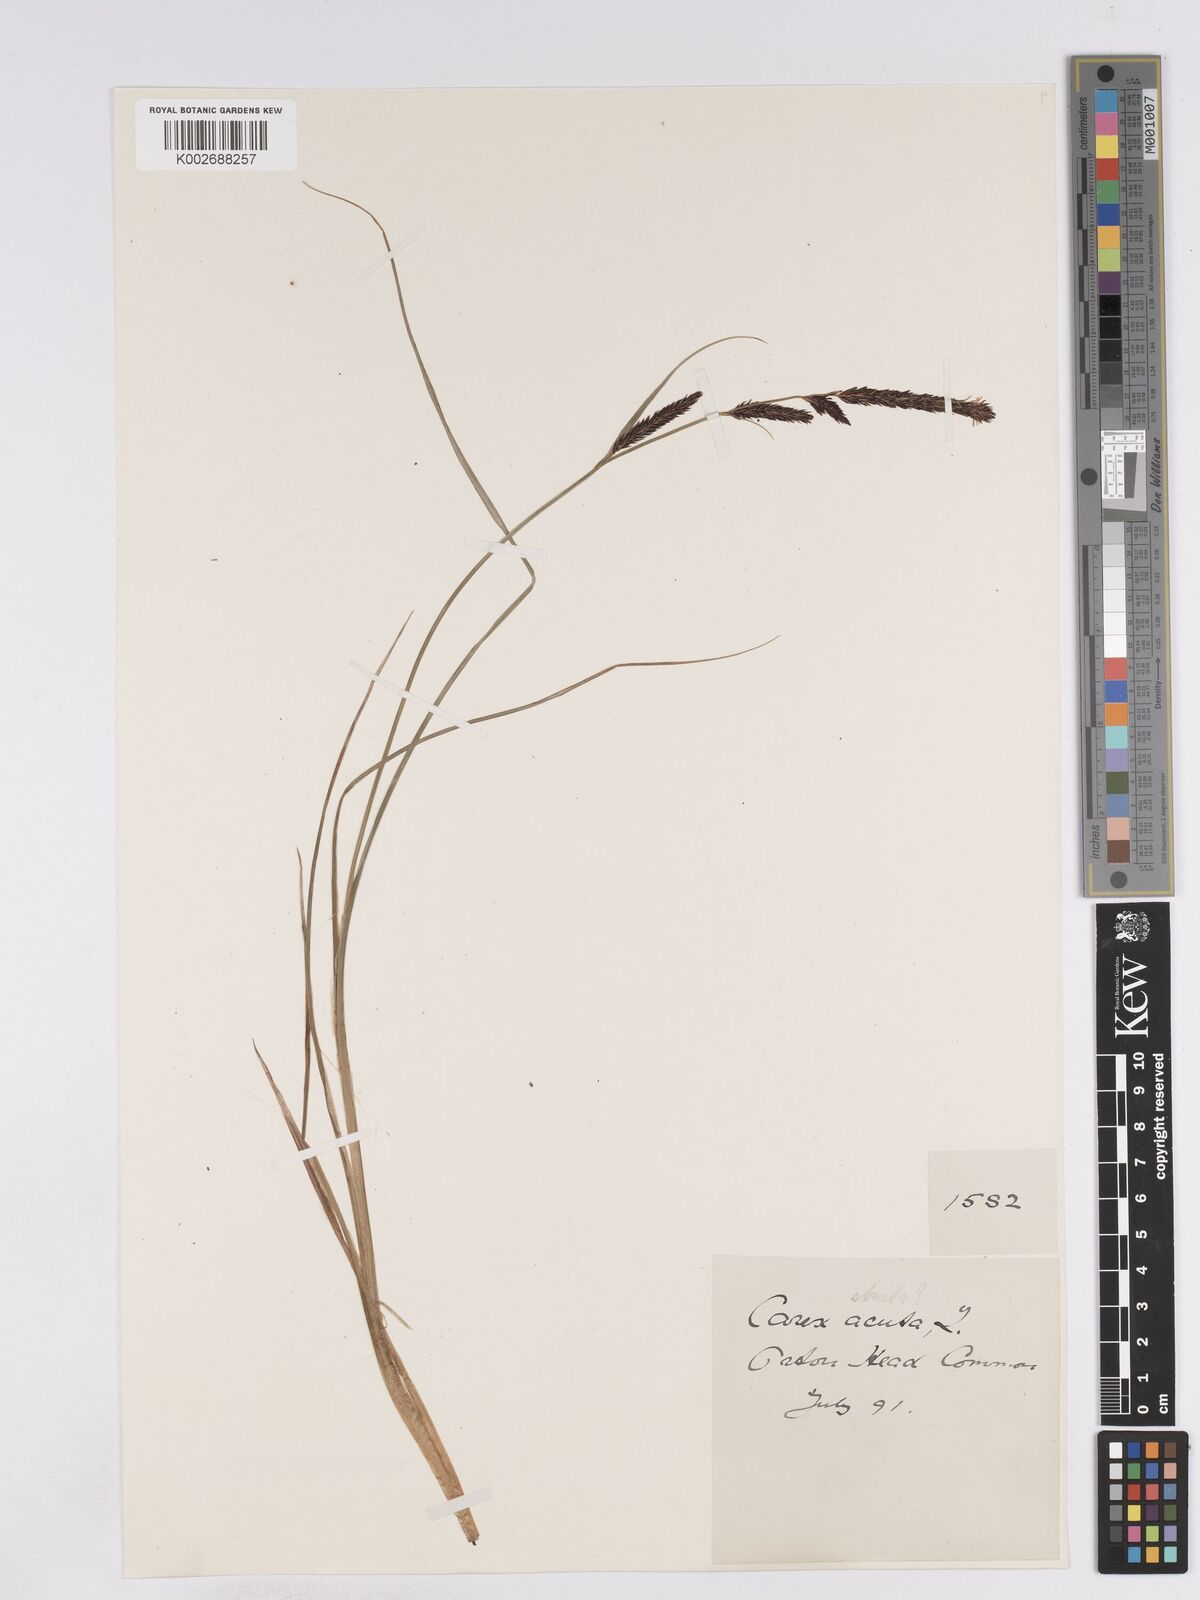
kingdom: Plantae
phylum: Tracheophyta
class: Liliopsida
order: Poales
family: Cyperaceae
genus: Carex
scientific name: Carex elata
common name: Tufted sedge
